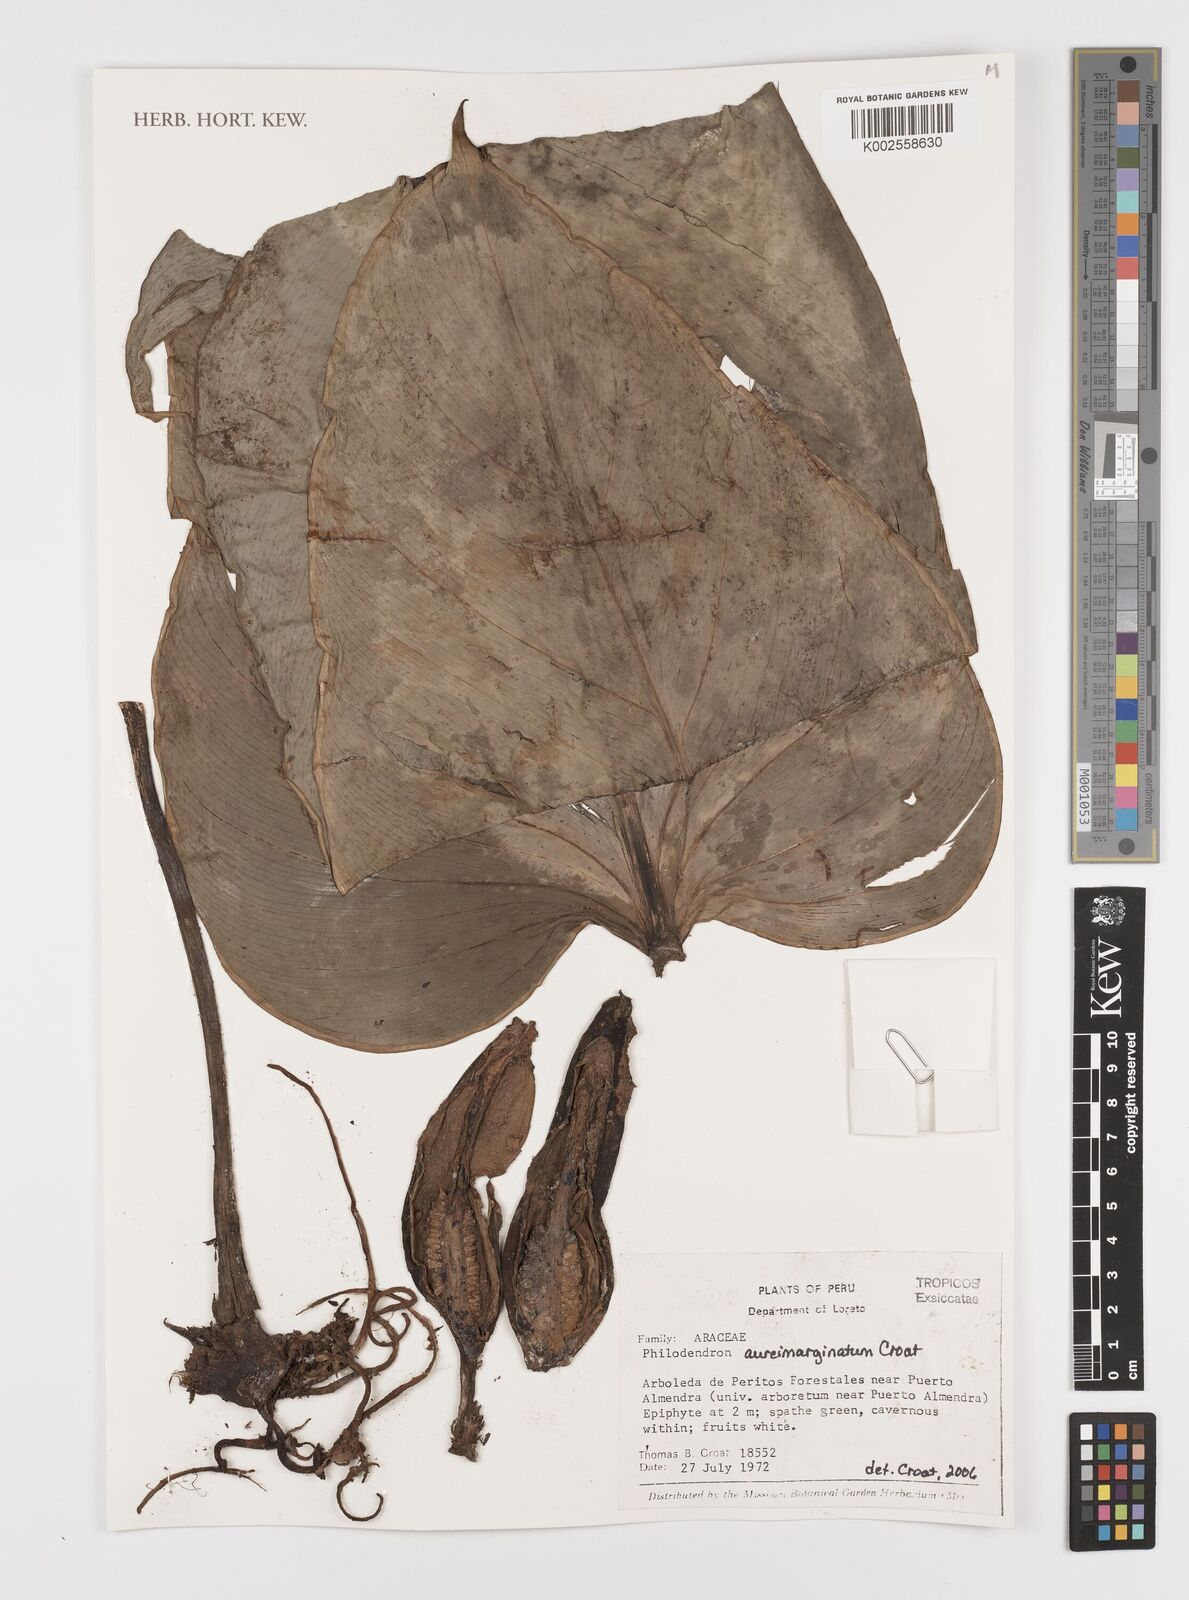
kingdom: Plantae
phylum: Tracheophyta
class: Liliopsida
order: Alismatales
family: Araceae
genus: Philodendron
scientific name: Philodendron aureimarginatum
